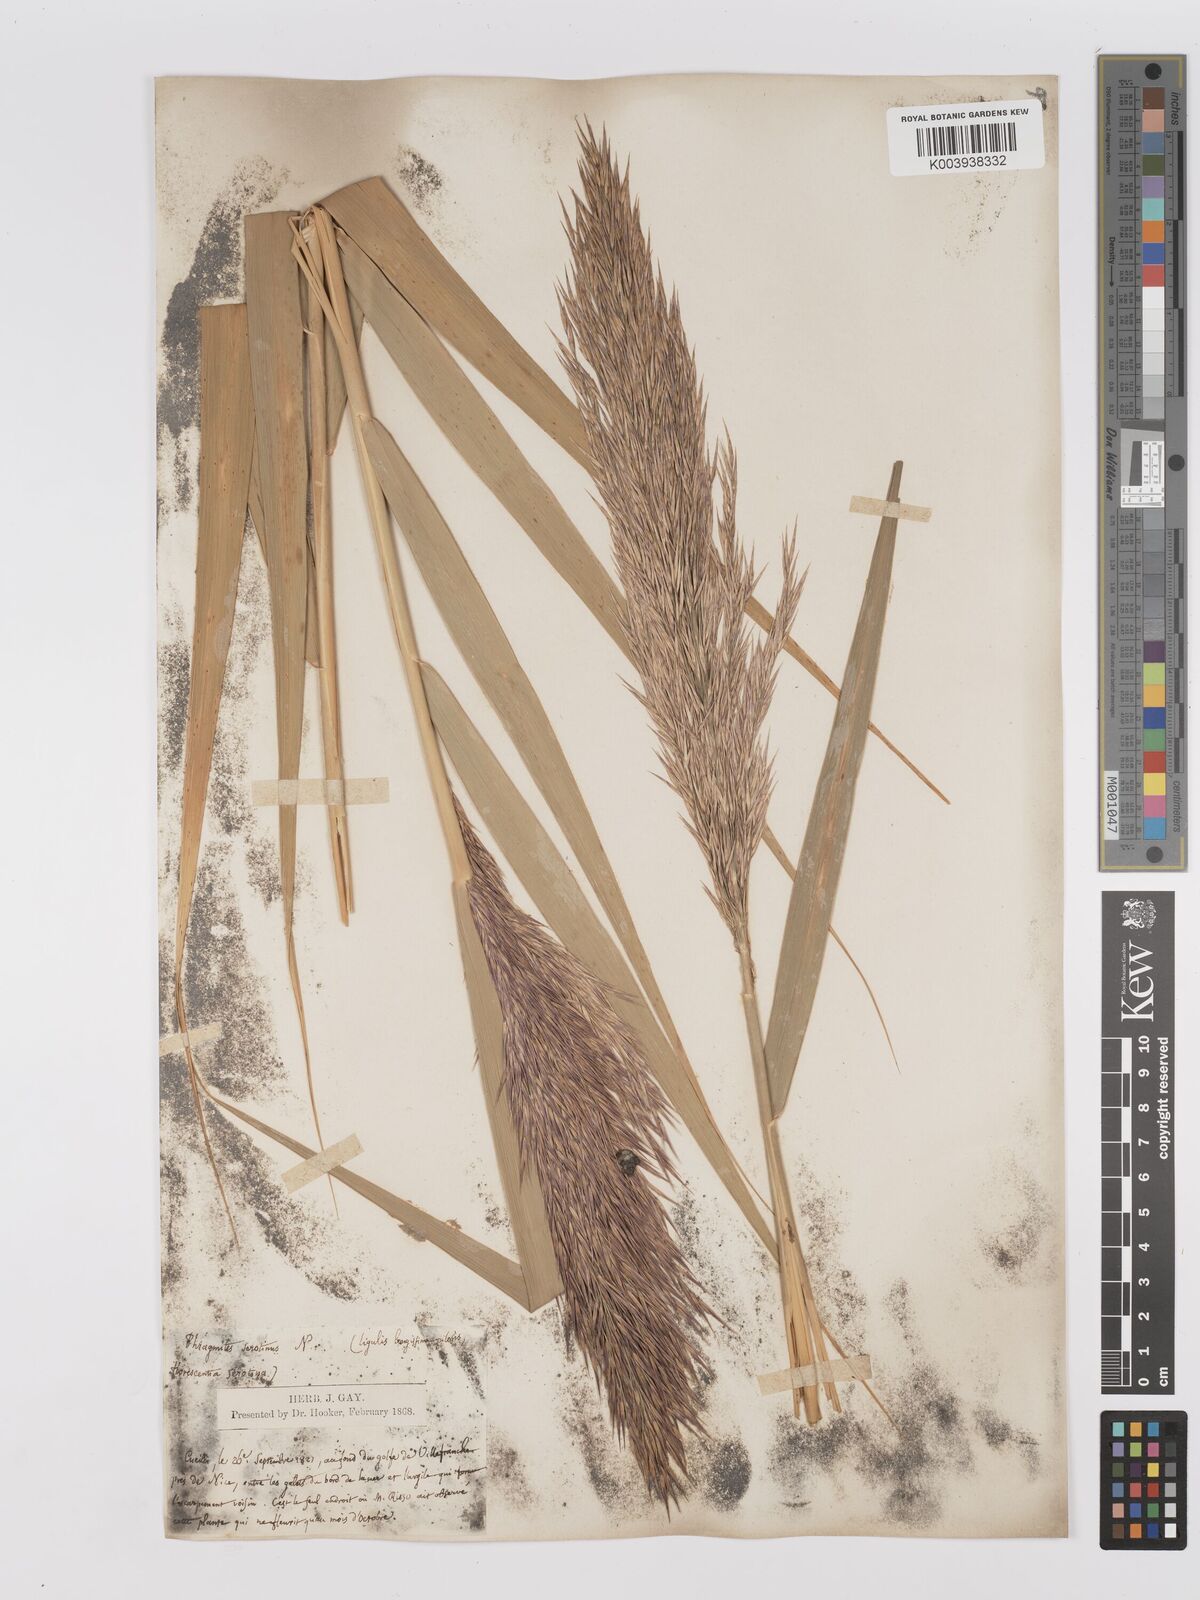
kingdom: Plantae
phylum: Tracheophyta
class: Liliopsida
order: Poales
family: Poaceae
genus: Phragmites
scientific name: Phragmites australis
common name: Common reed
